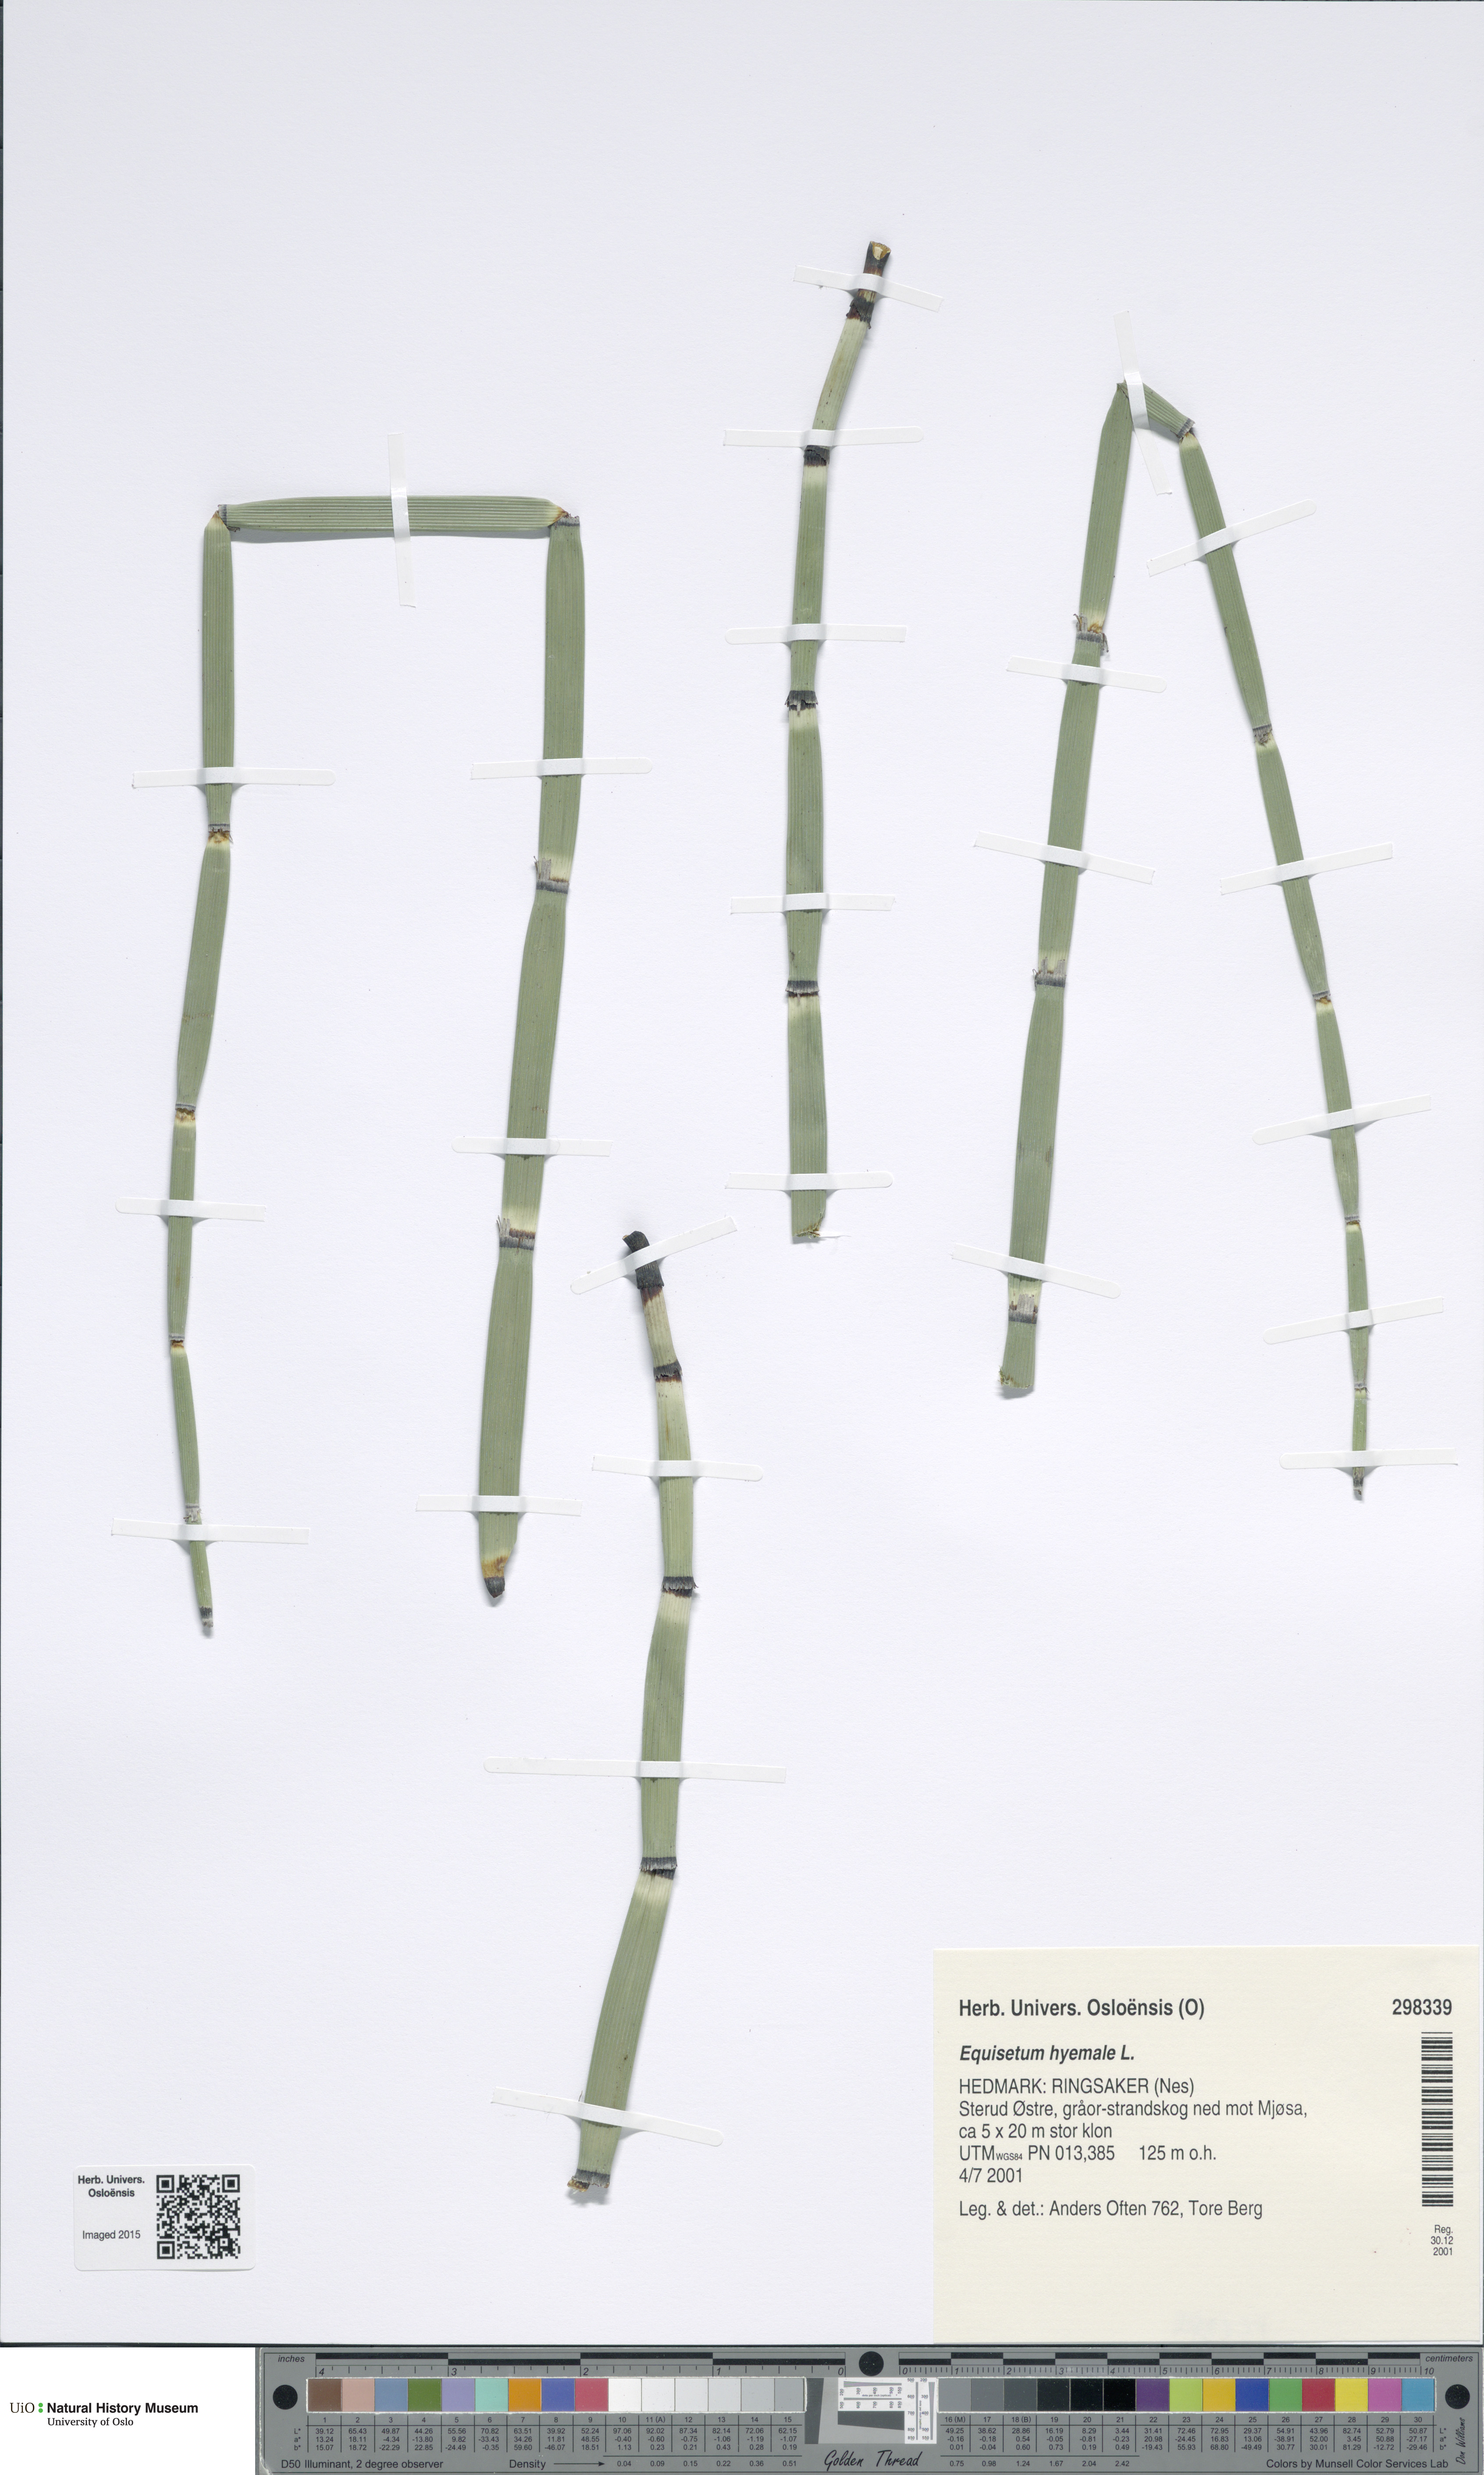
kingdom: Plantae
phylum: Tracheophyta
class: Polypodiopsida
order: Equisetales
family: Equisetaceae
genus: Equisetum
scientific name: Equisetum hyemale
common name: Rough horsetail
